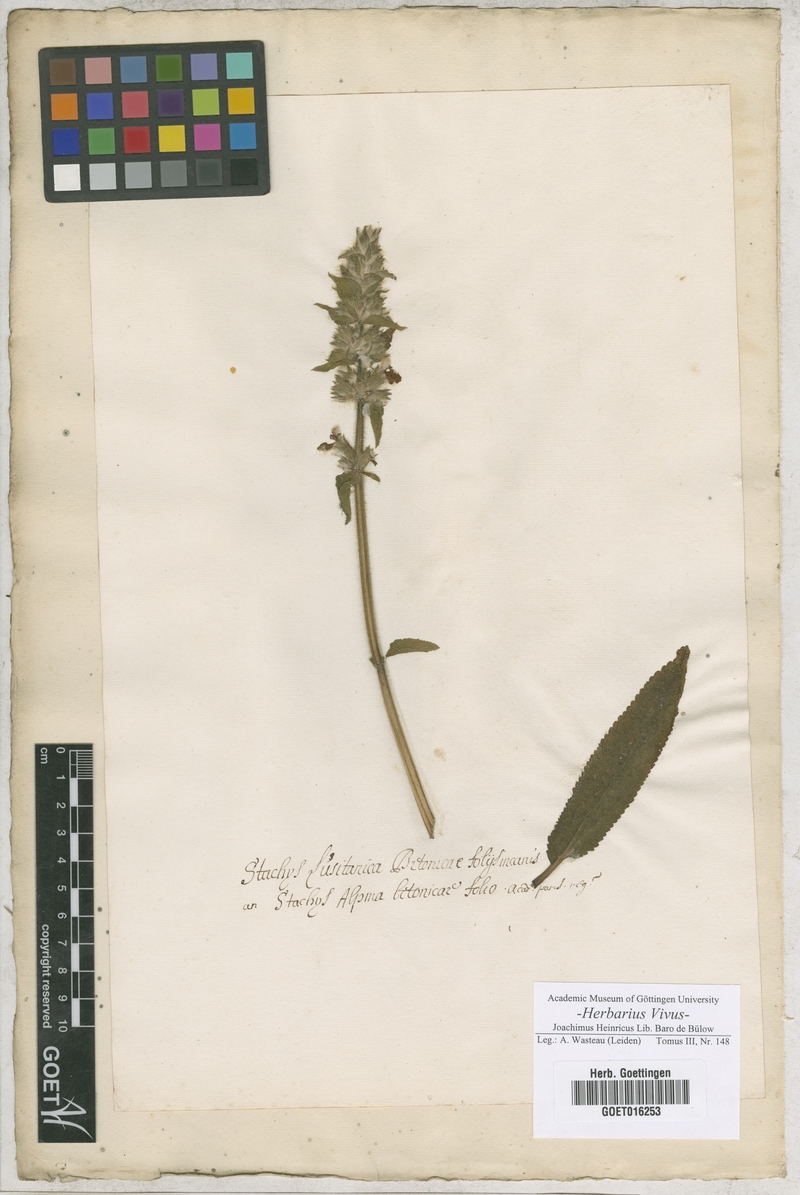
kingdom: Plantae
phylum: Tracheophyta
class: Magnoliopsida
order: Lamiales
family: Lamiaceae
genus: Stachys
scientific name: Stachys
